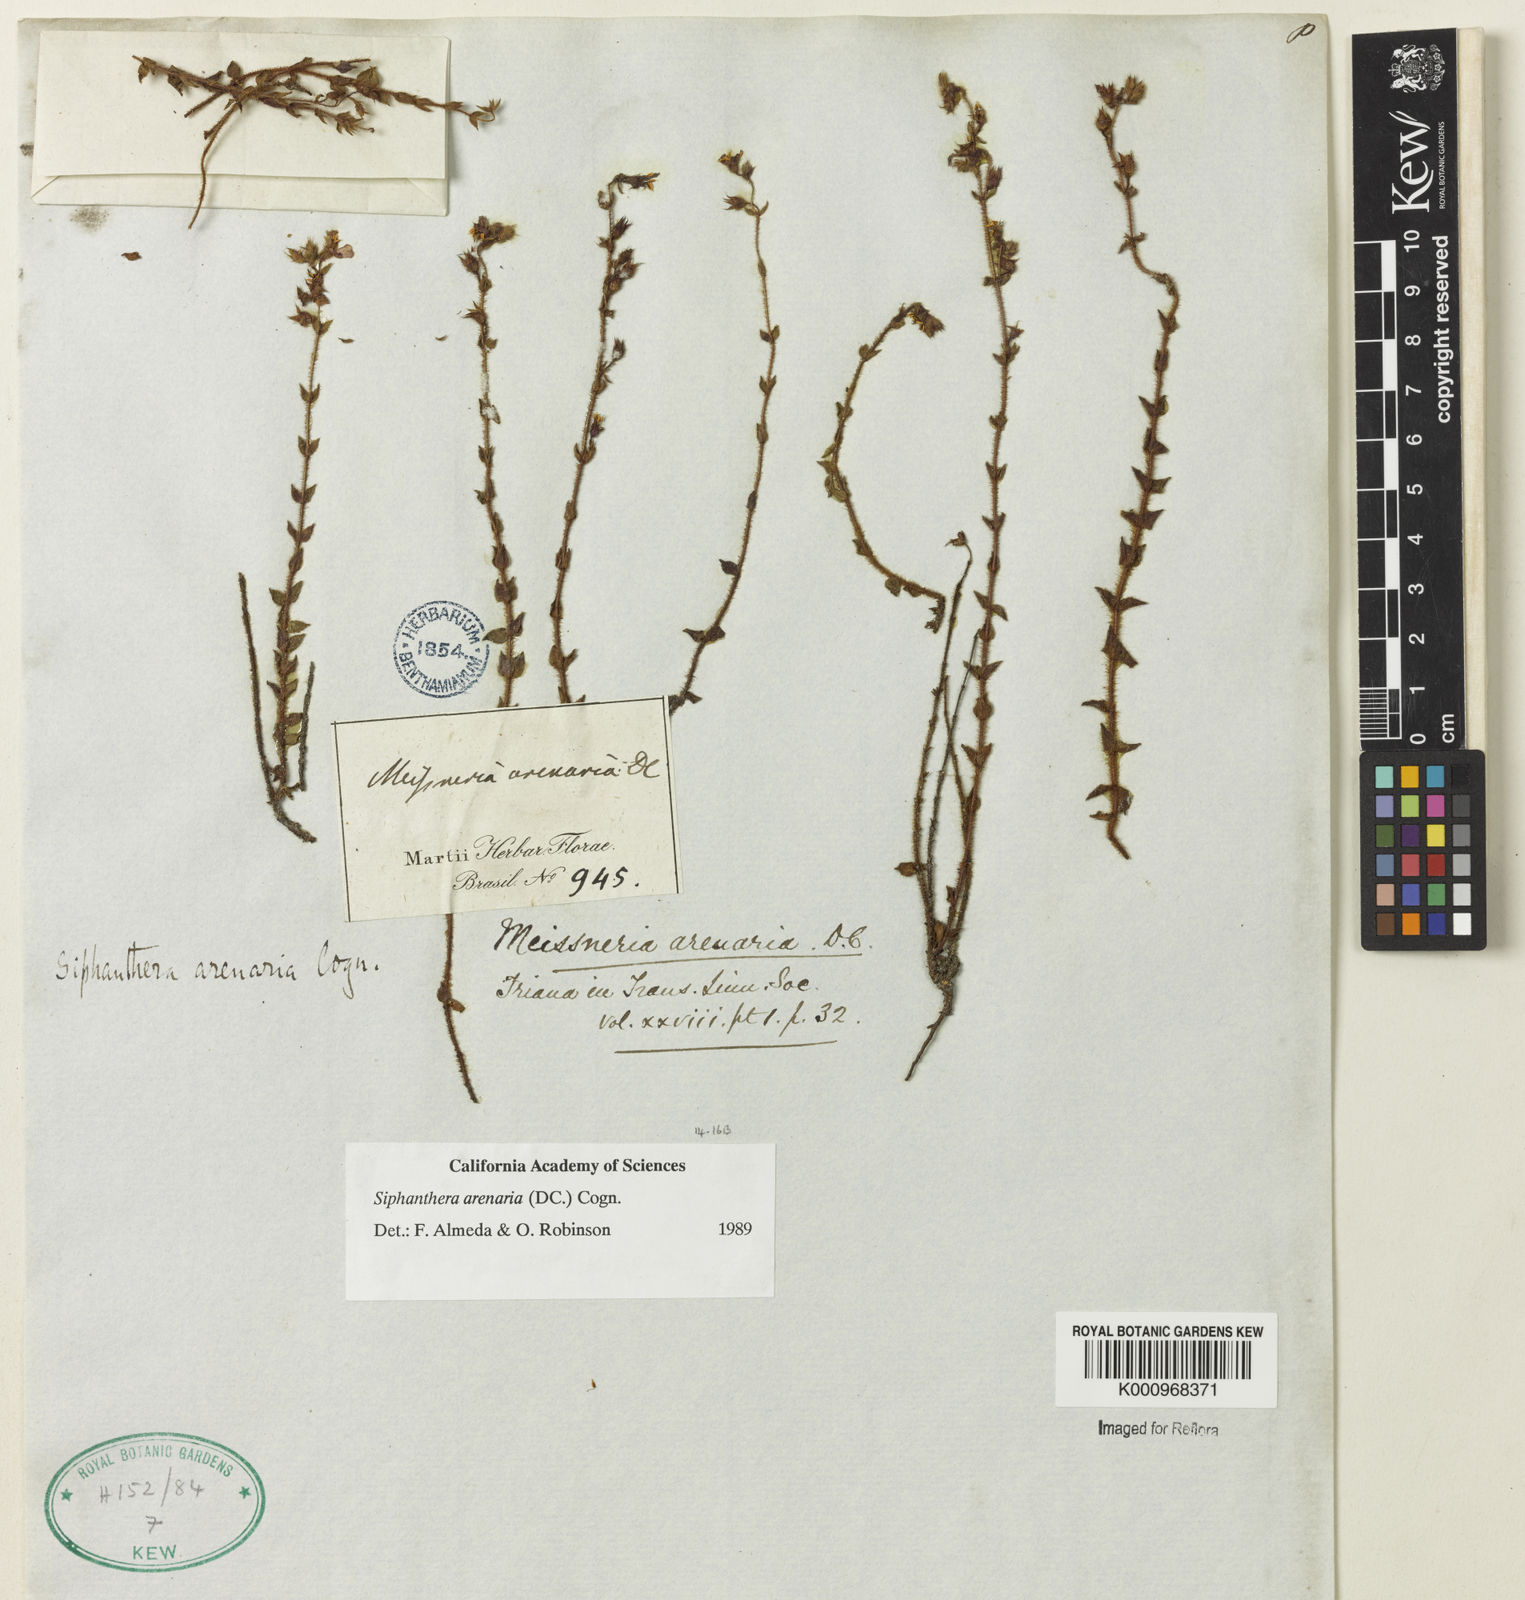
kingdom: Plantae
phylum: Tracheophyta
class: Magnoliopsida
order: Myrtales
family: Melastomataceae
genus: Siphanthera
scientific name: Siphanthera arenaria
